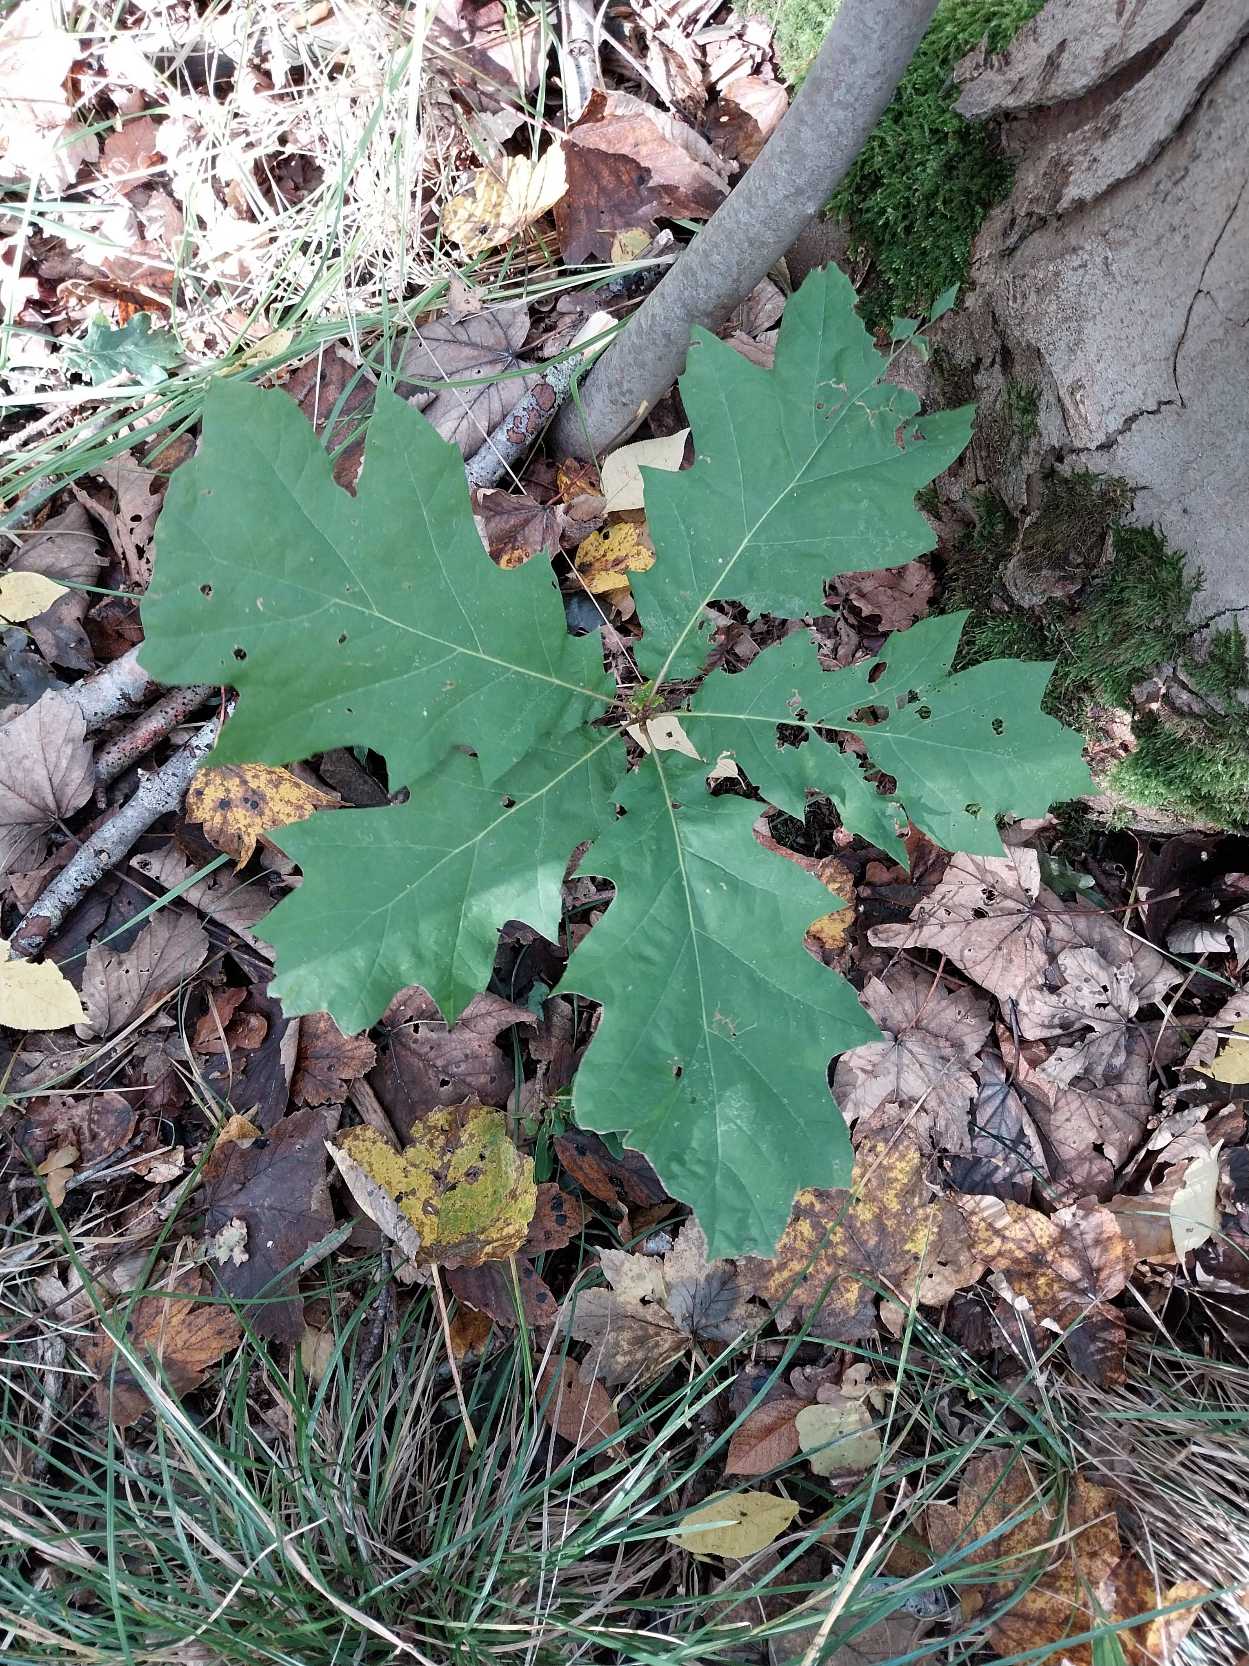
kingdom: Plantae
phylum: Tracheophyta
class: Magnoliopsida
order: Fagales
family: Fagaceae
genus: Quercus
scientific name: Quercus rubra
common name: Rød-eg
